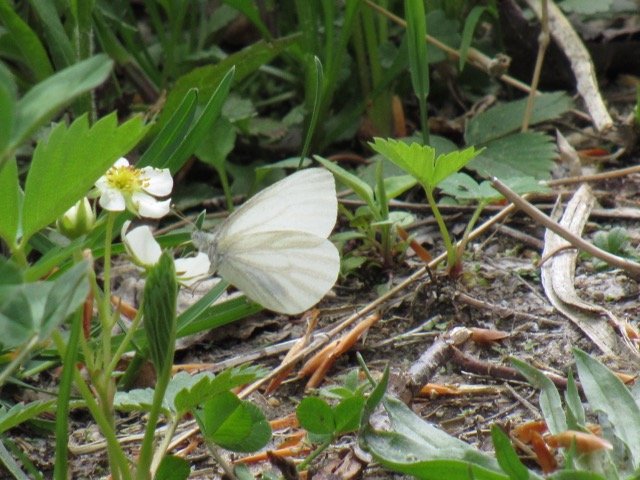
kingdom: Animalia
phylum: Arthropoda
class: Insecta
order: Lepidoptera
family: Pieridae
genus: Pieris
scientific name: Pieris virginiensis
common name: West Virginia White
